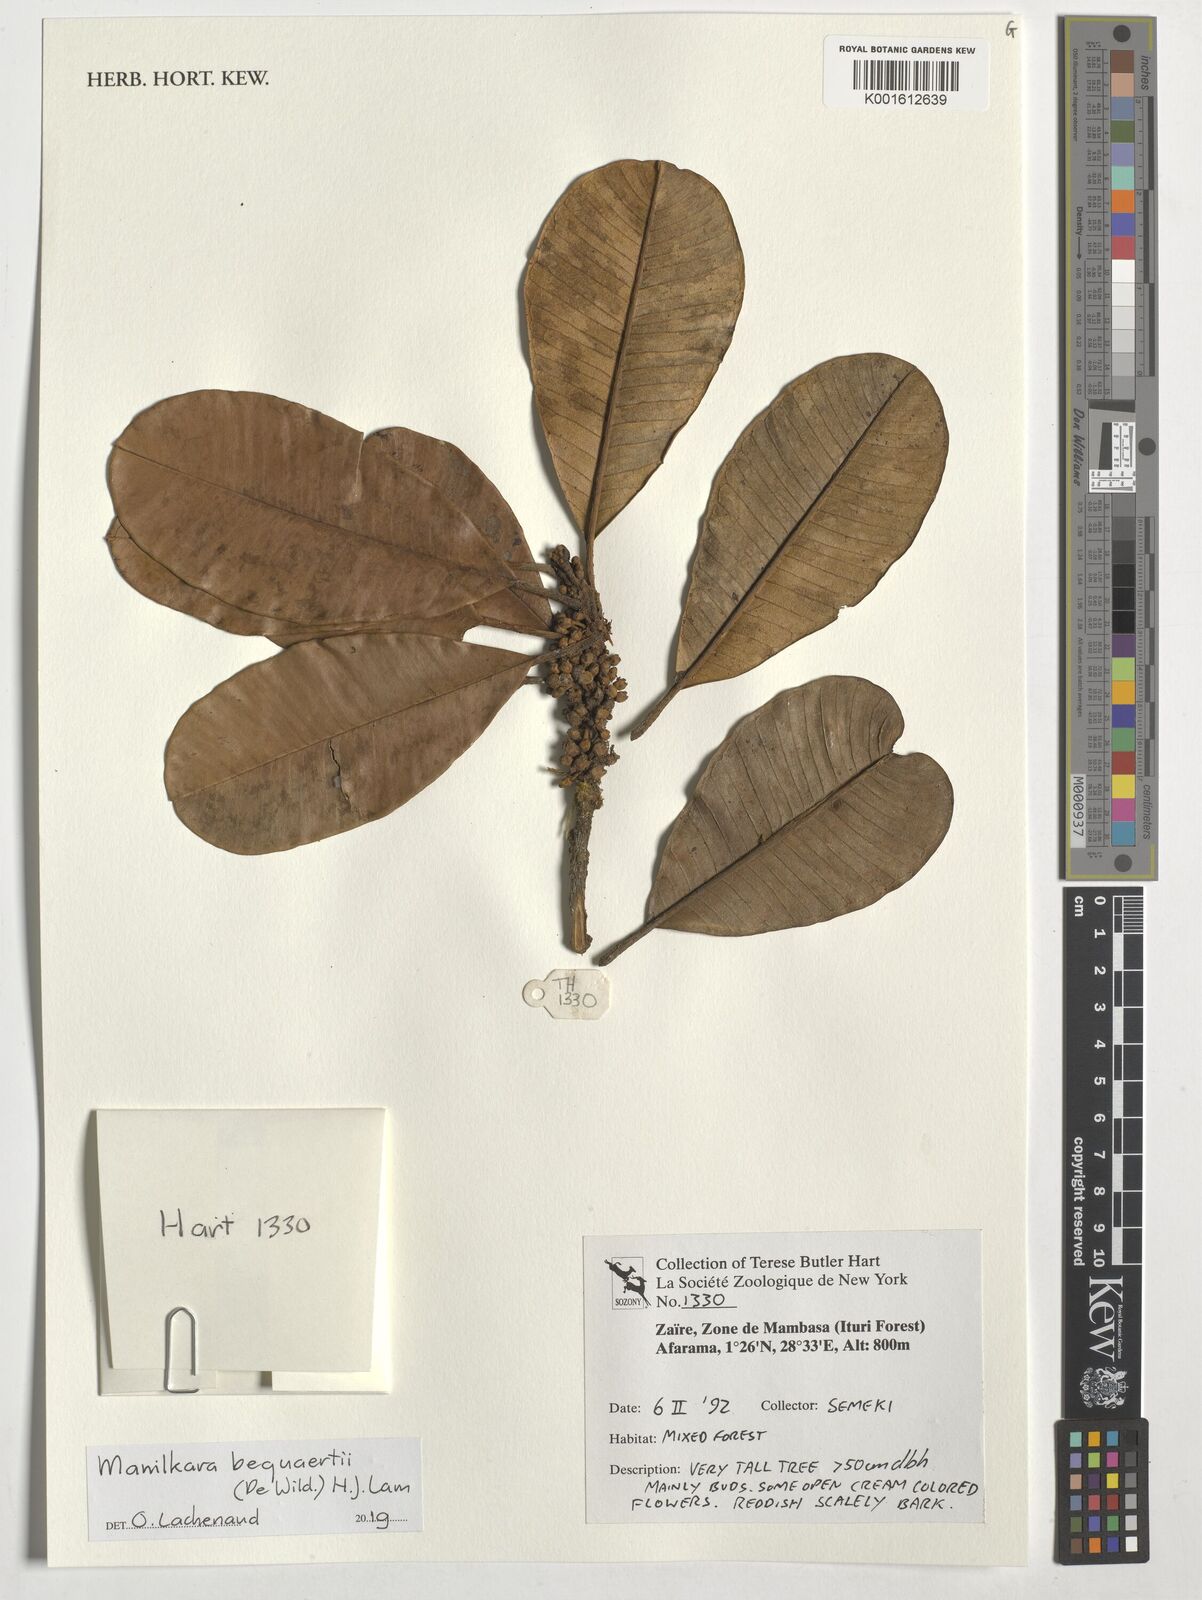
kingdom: Plantae
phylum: Tracheophyta
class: Magnoliopsida
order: Ericales
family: Sapotaceae
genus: Manilkara
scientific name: Manilkara bequaertii
